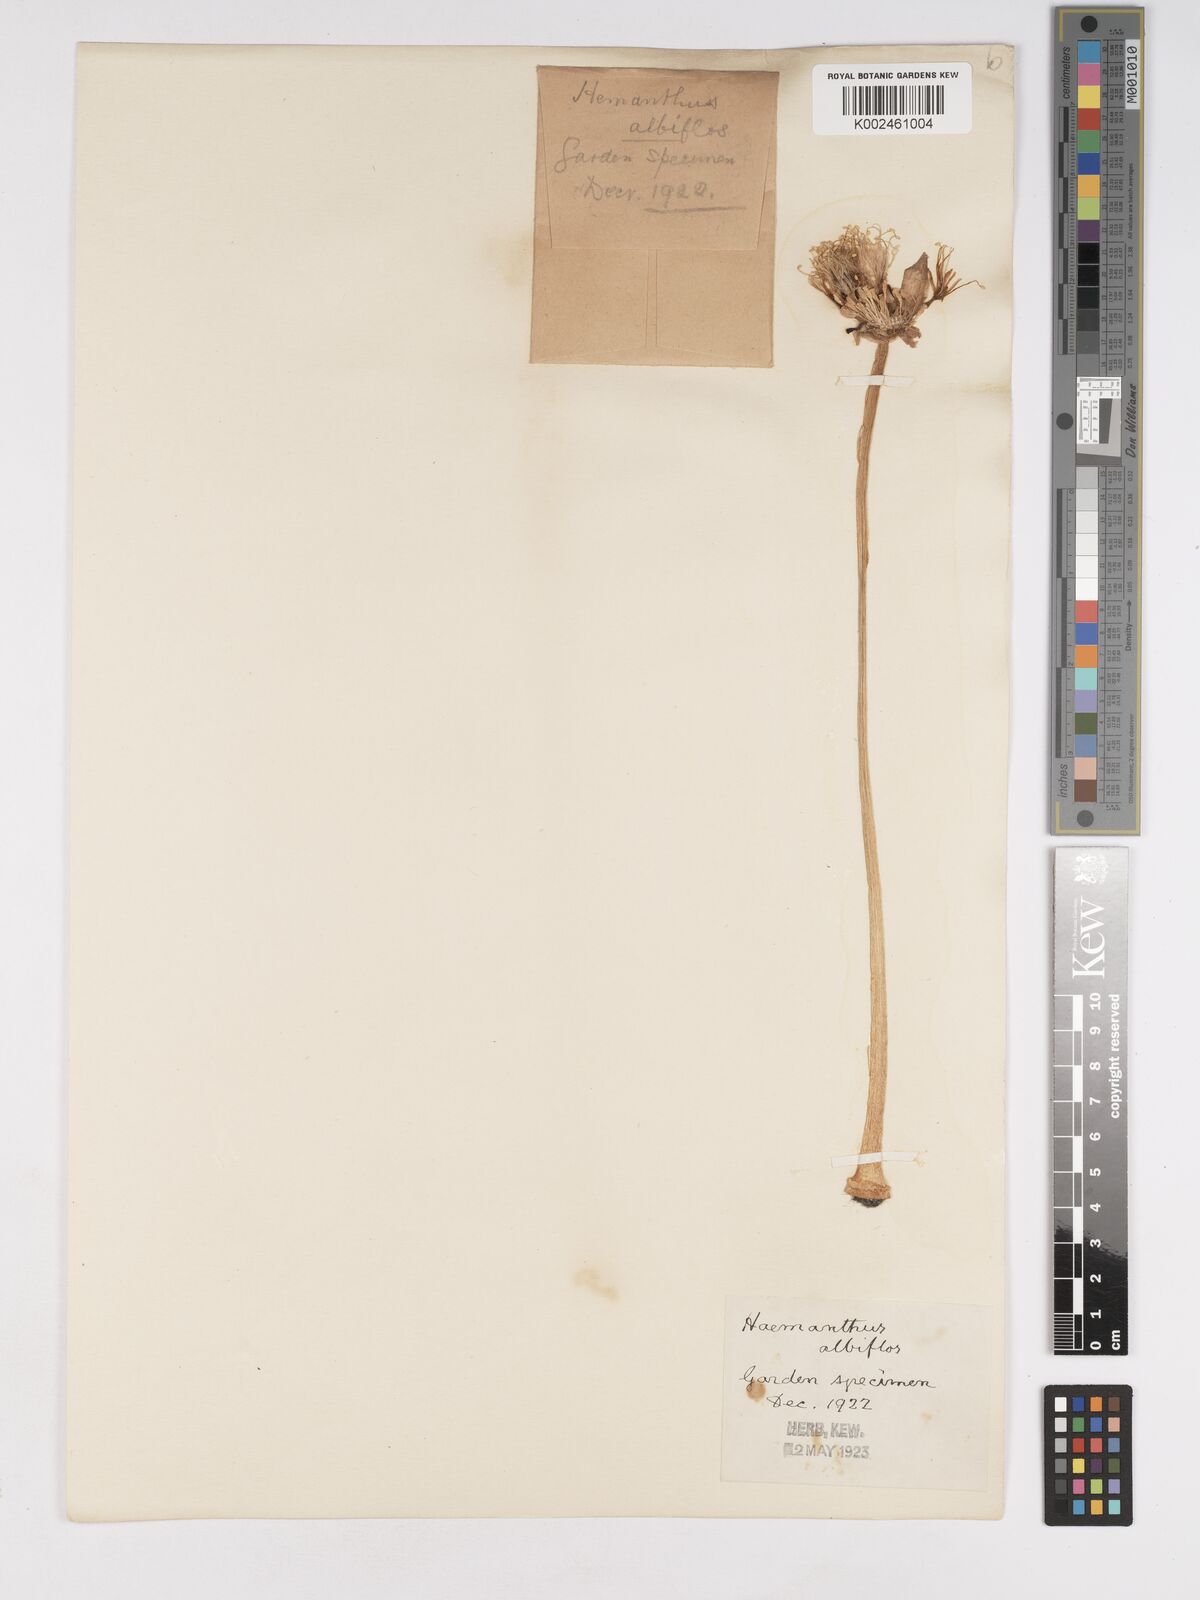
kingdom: Plantae
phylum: Tracheophyta
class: Liliopsida
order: Asparagales
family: Amaryllidaceae
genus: Haemanthus
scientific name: Haemanthus albiflos
